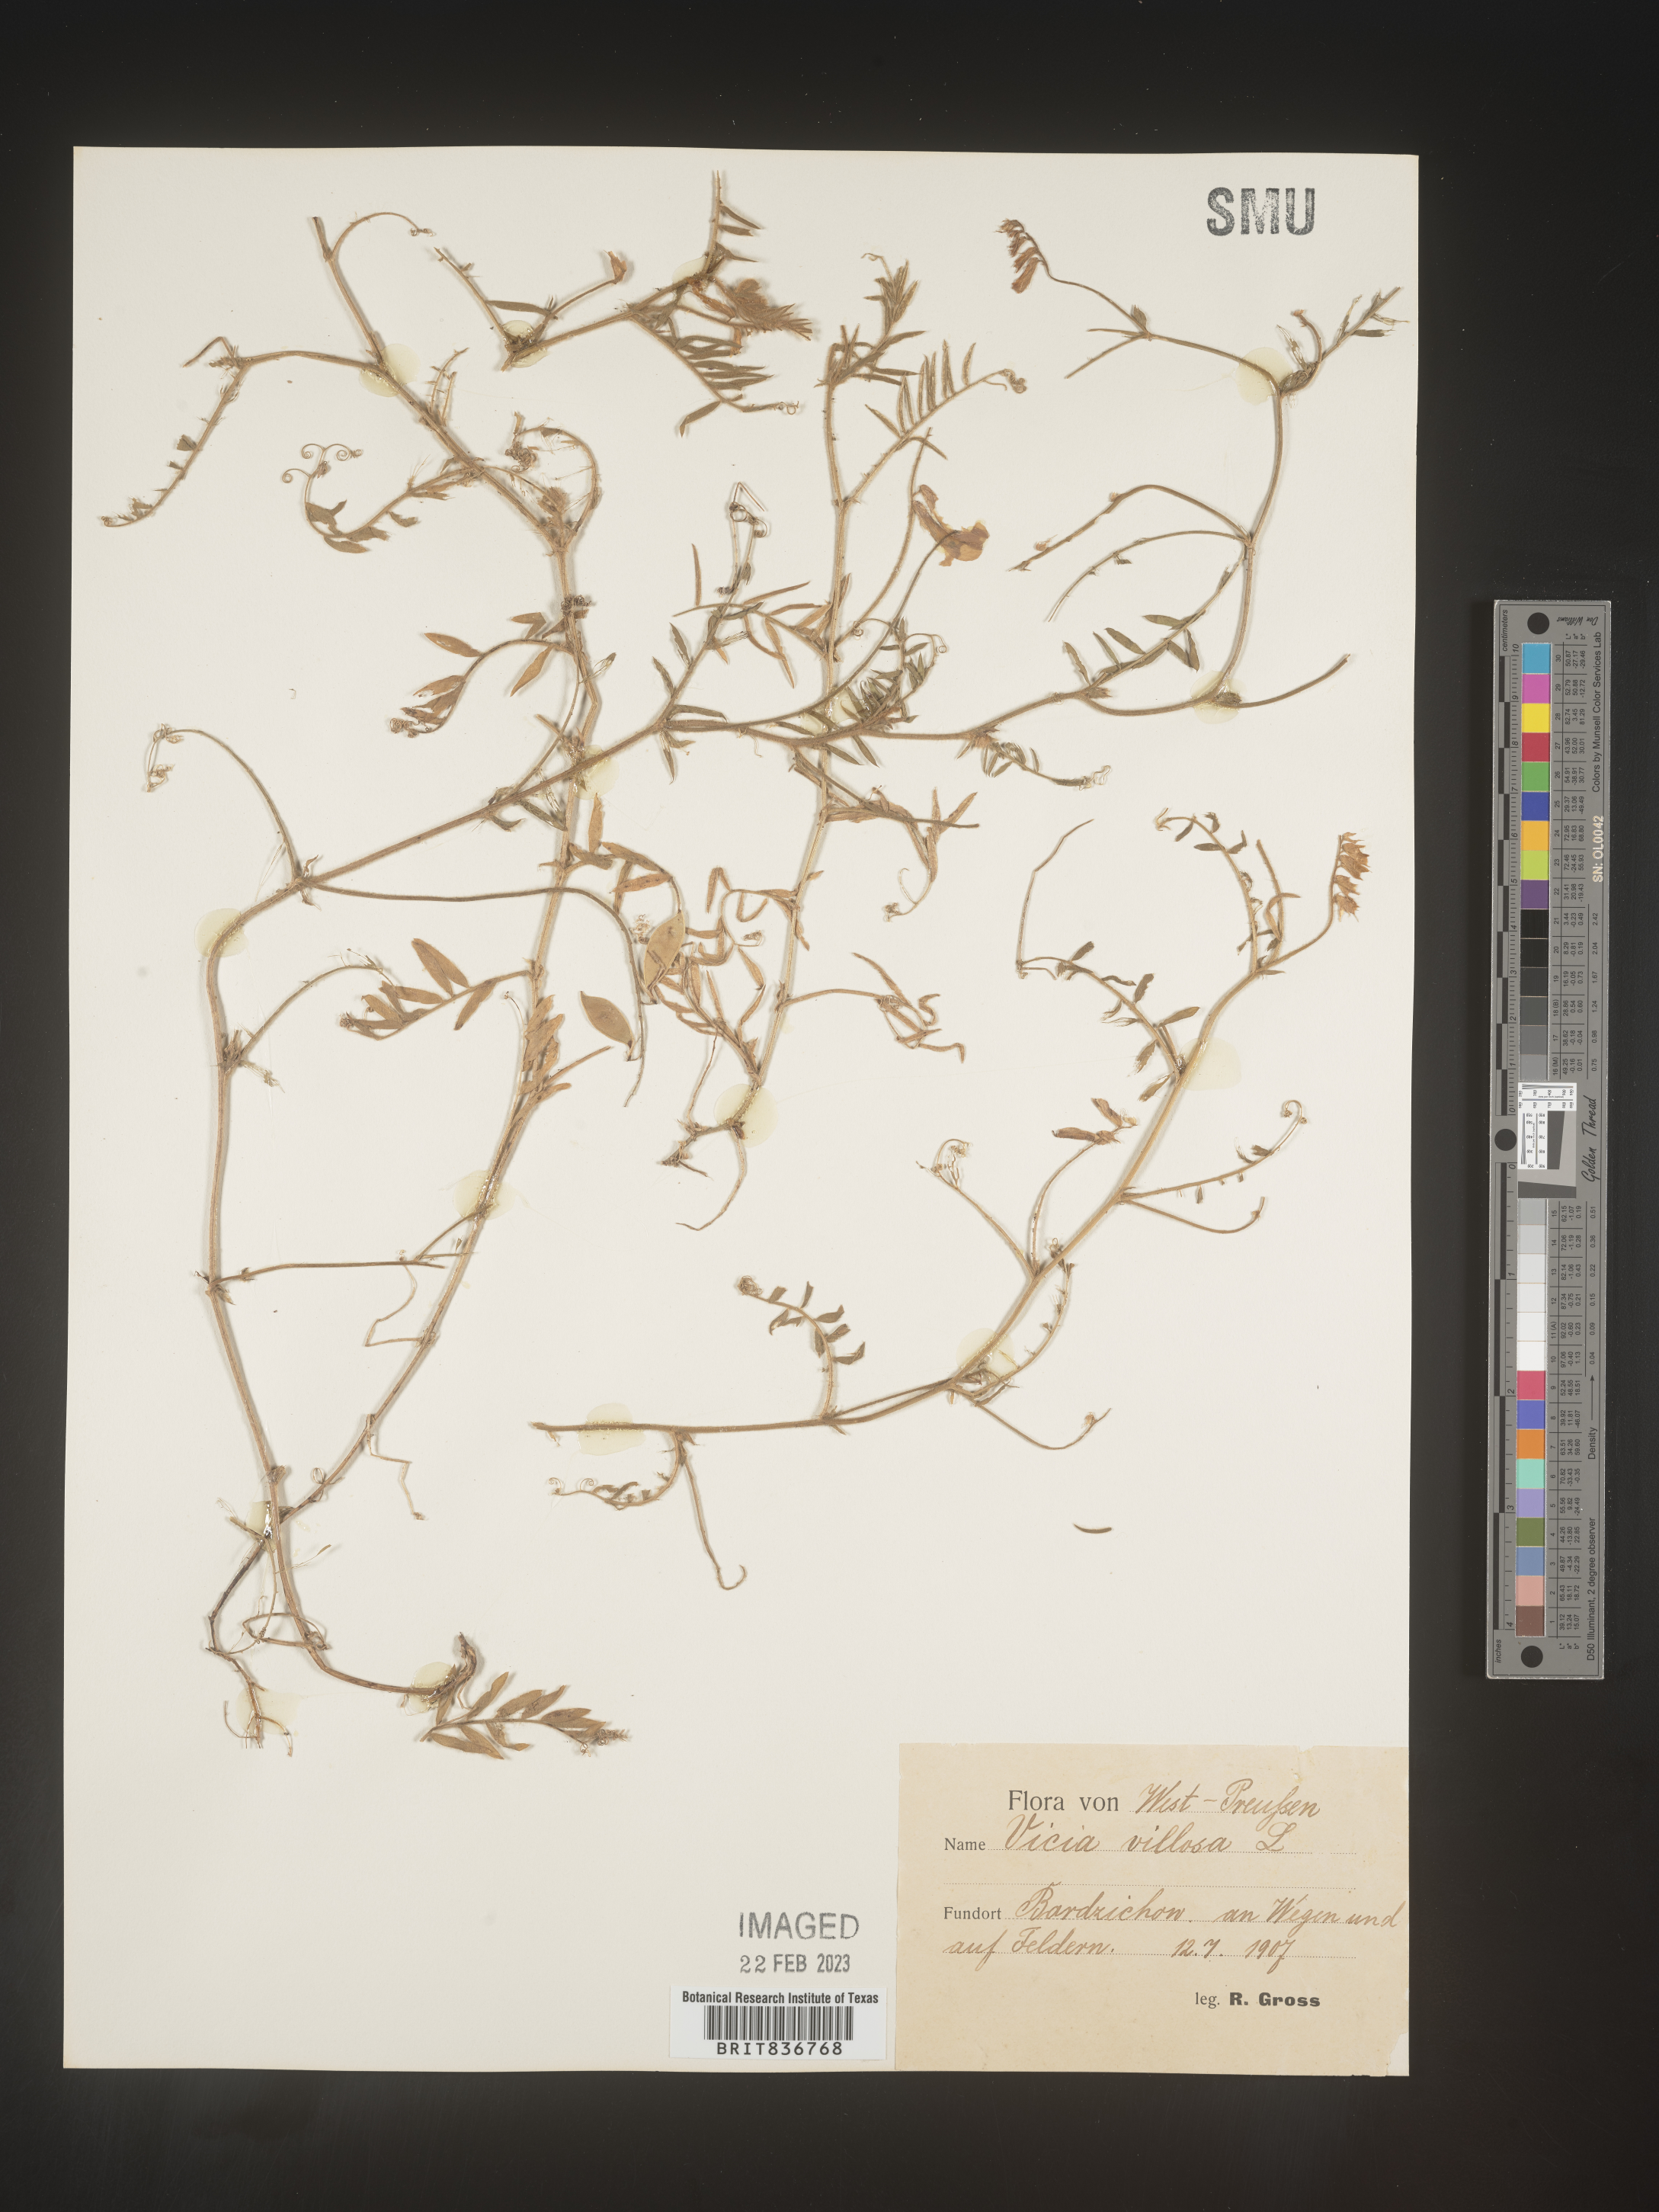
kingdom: Plantae
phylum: Tracheophyta
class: Magnoliopsida
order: Fabales
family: Fabaceae
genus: Vicia
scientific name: Vicia
